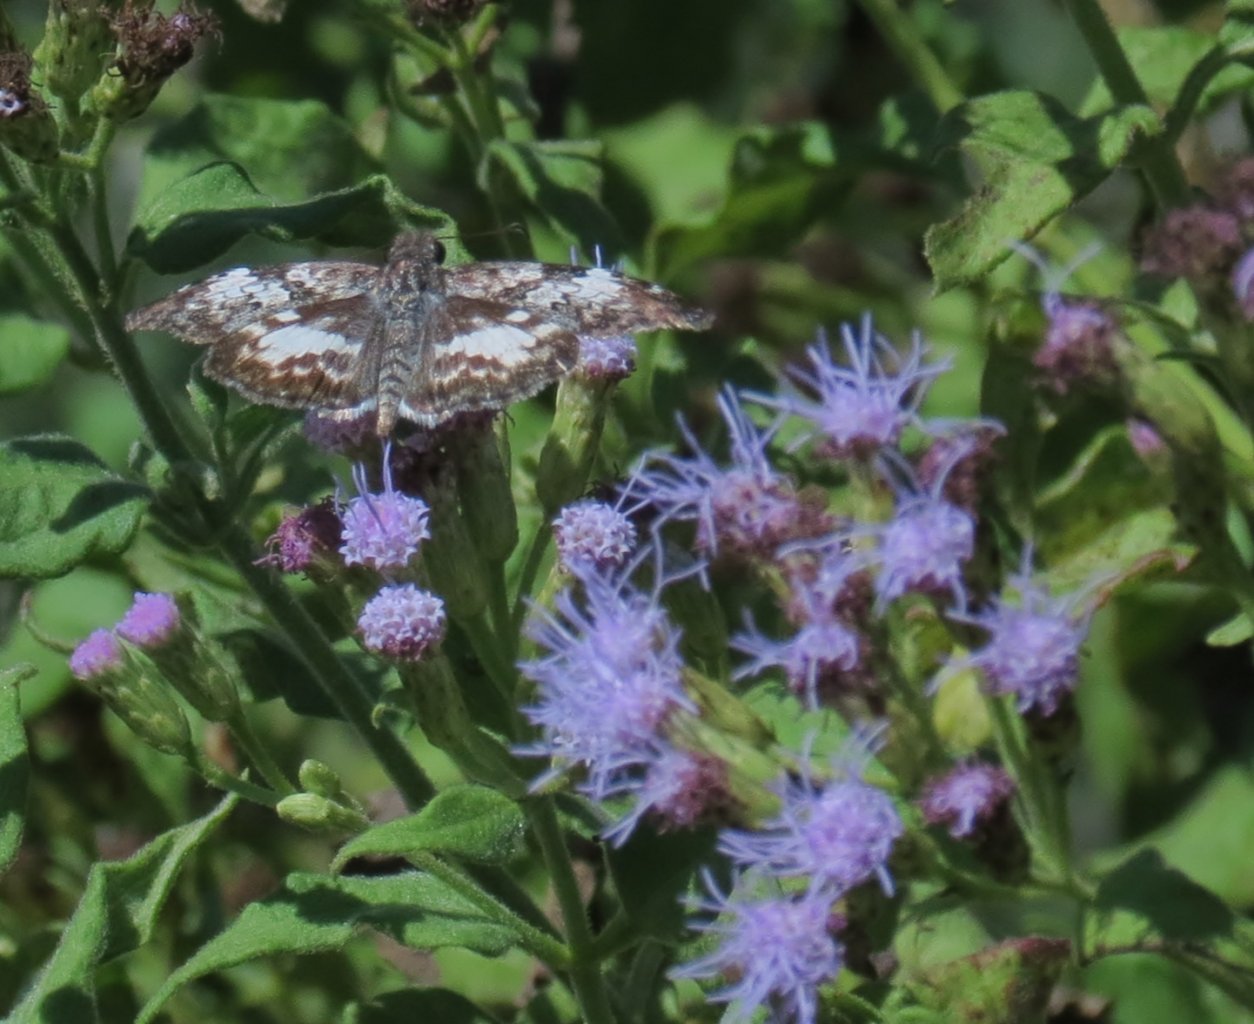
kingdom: Animalia
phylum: Arthropoda
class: Insecta
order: Lepidoptera
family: Hesperiidae
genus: Chiomara
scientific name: Chiomara asychis
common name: White-patched Skipper
